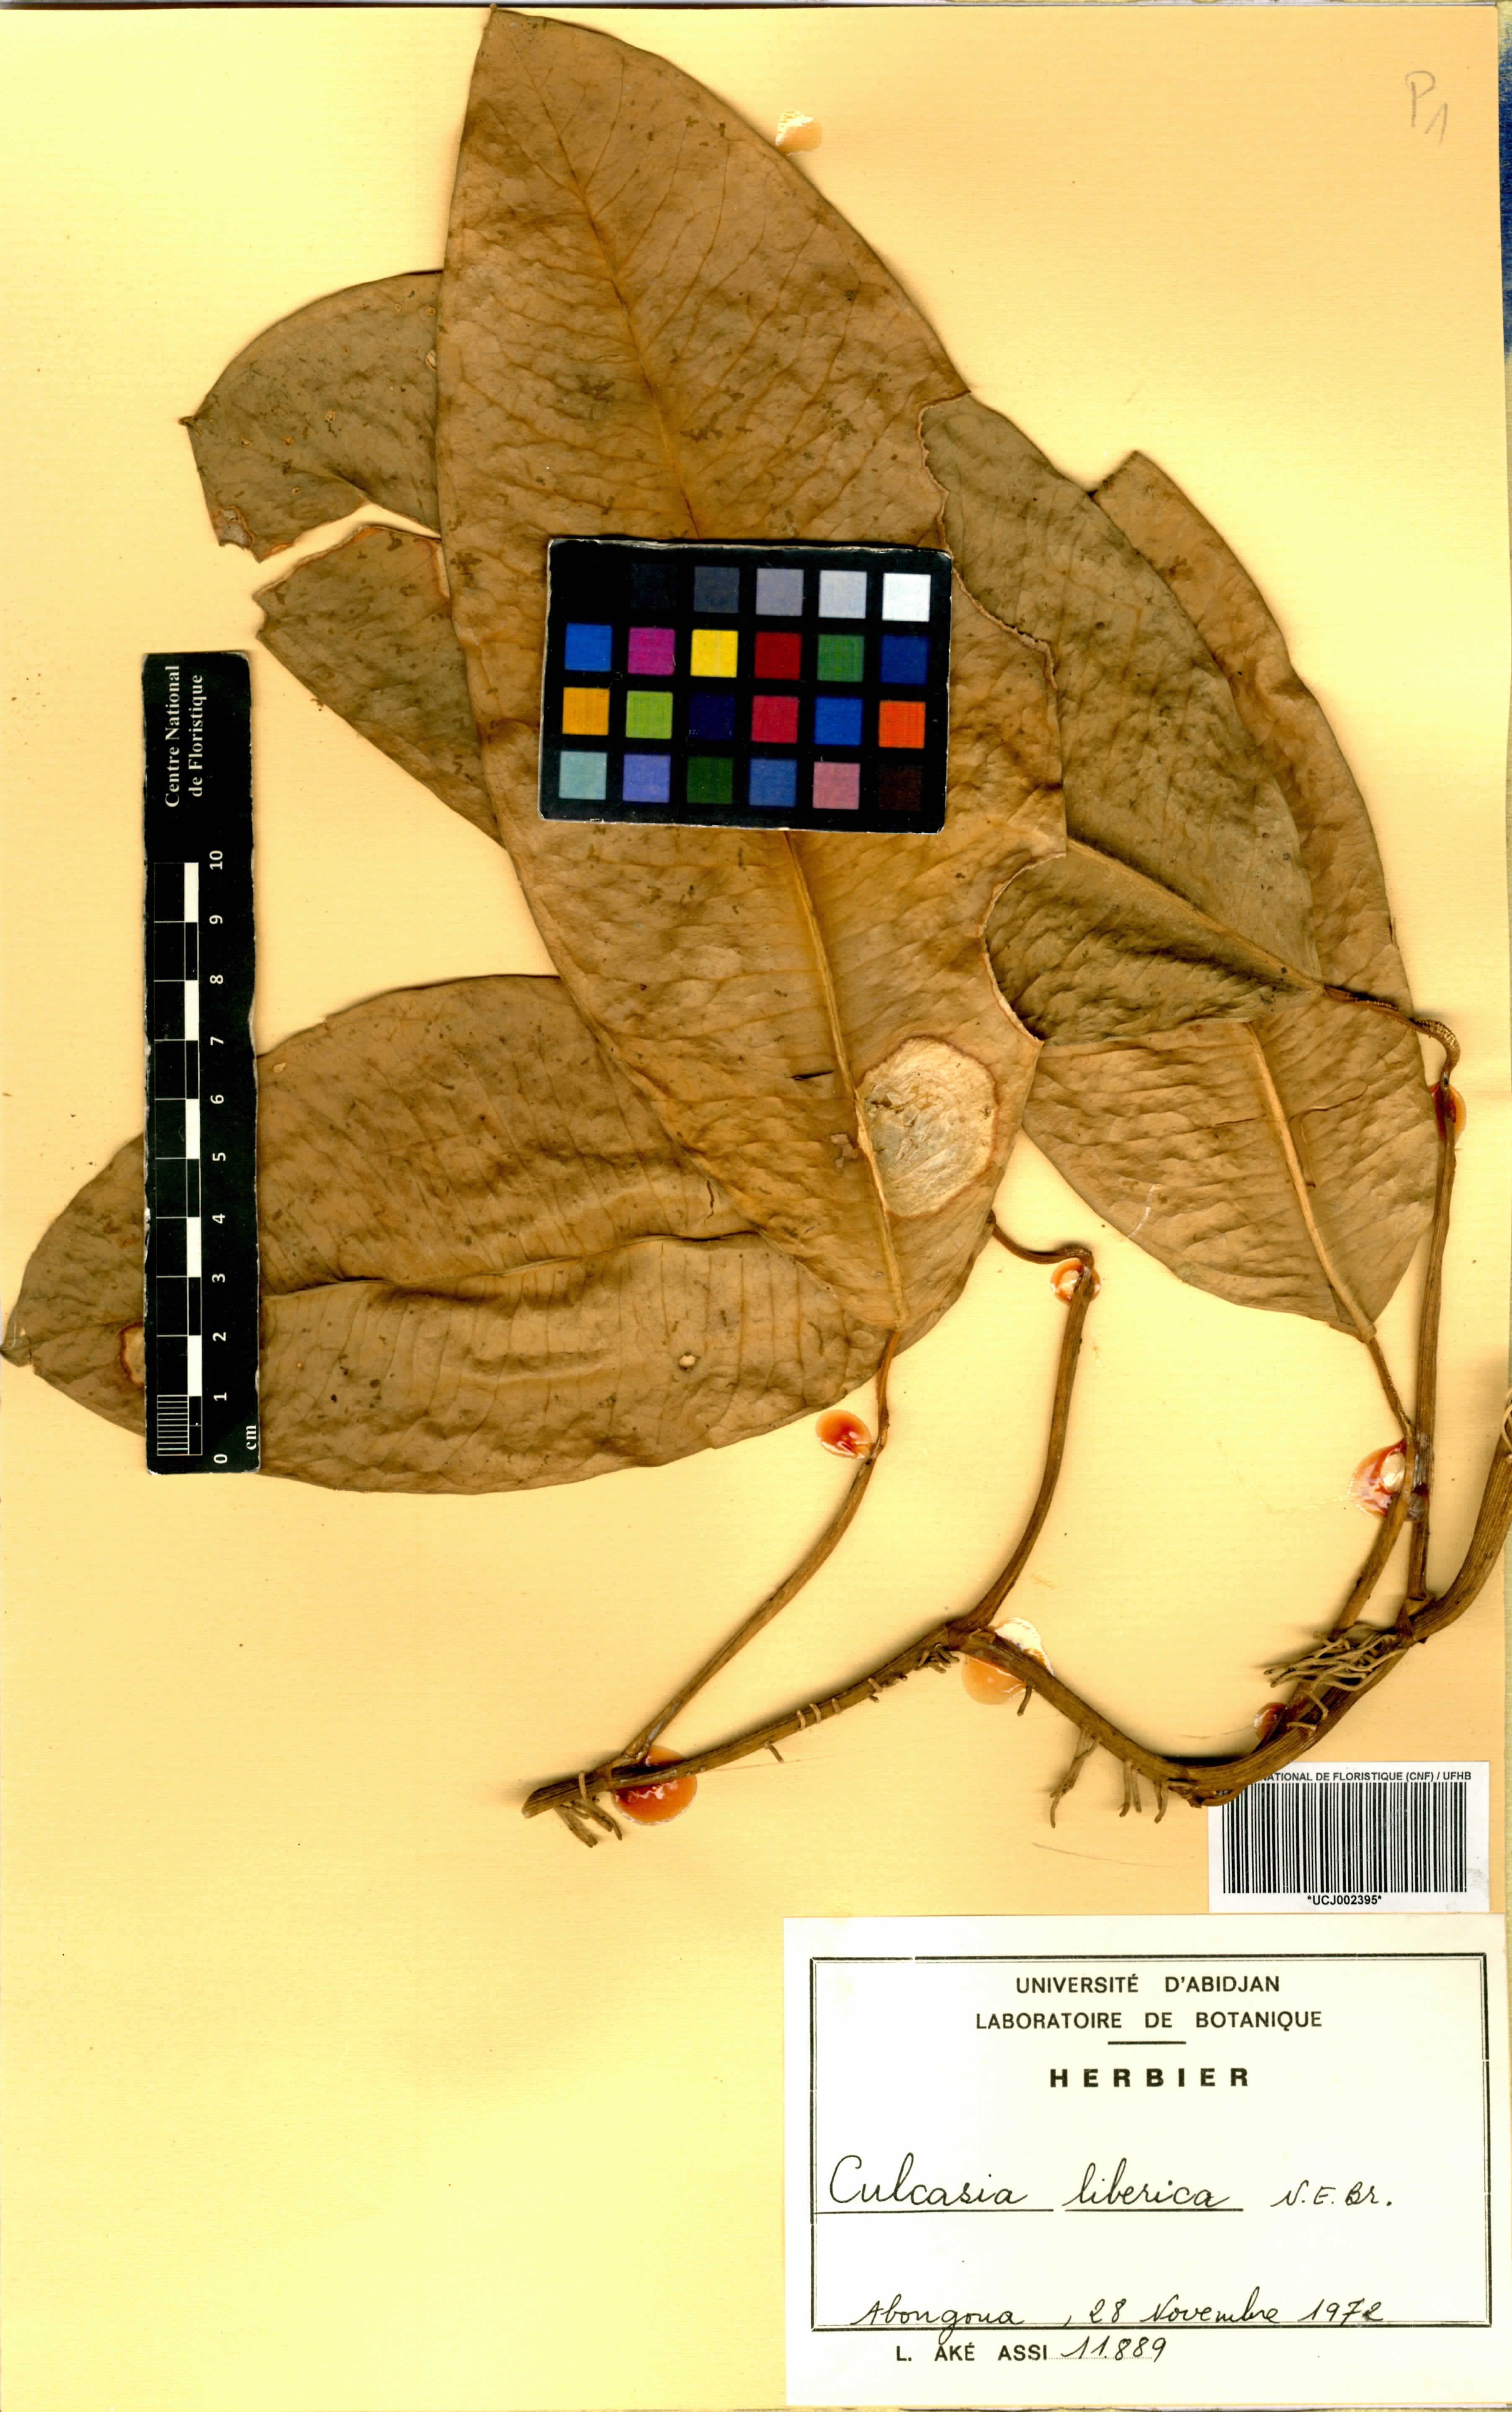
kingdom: Plantae
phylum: Tracheophyta
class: Liliopsida
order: Alismatales
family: Araceae
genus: Culcasia
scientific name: Culcasia liberica
